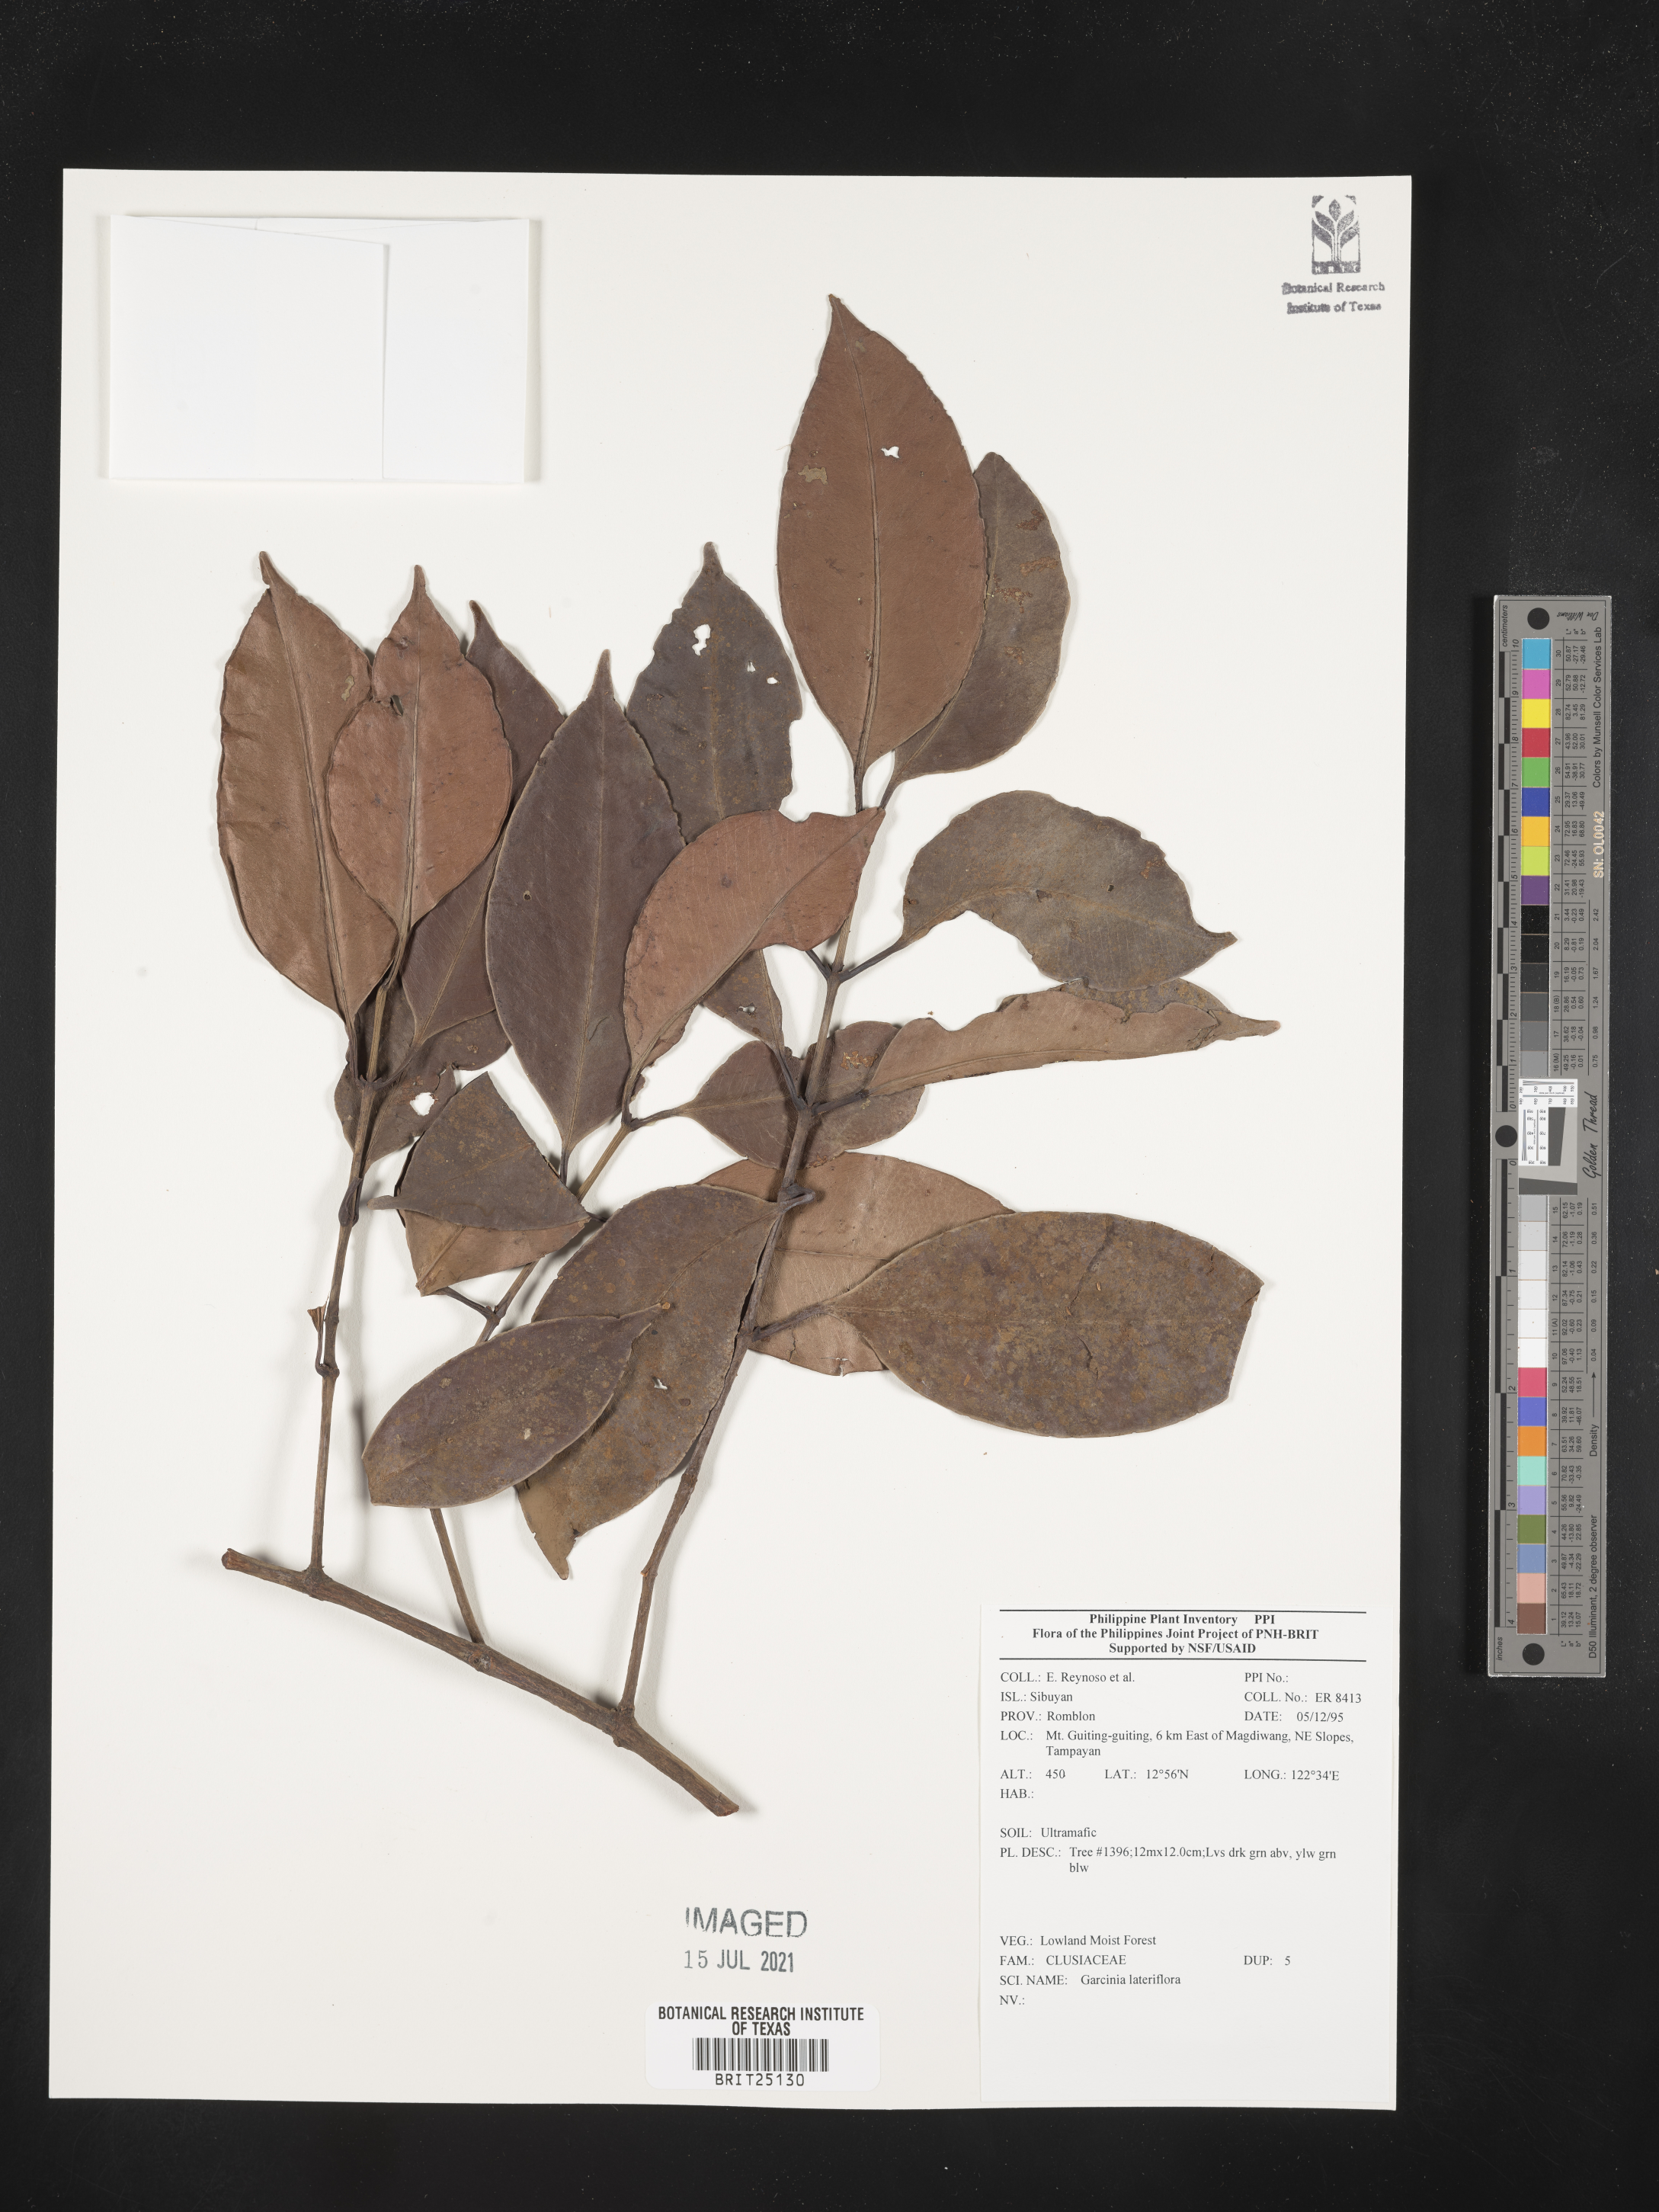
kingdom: Plantae
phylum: Tracheophyta
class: Magnoliopsida
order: Malpighiales
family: Clusiaceae
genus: Garcinia
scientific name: Garcinia lateriflora
